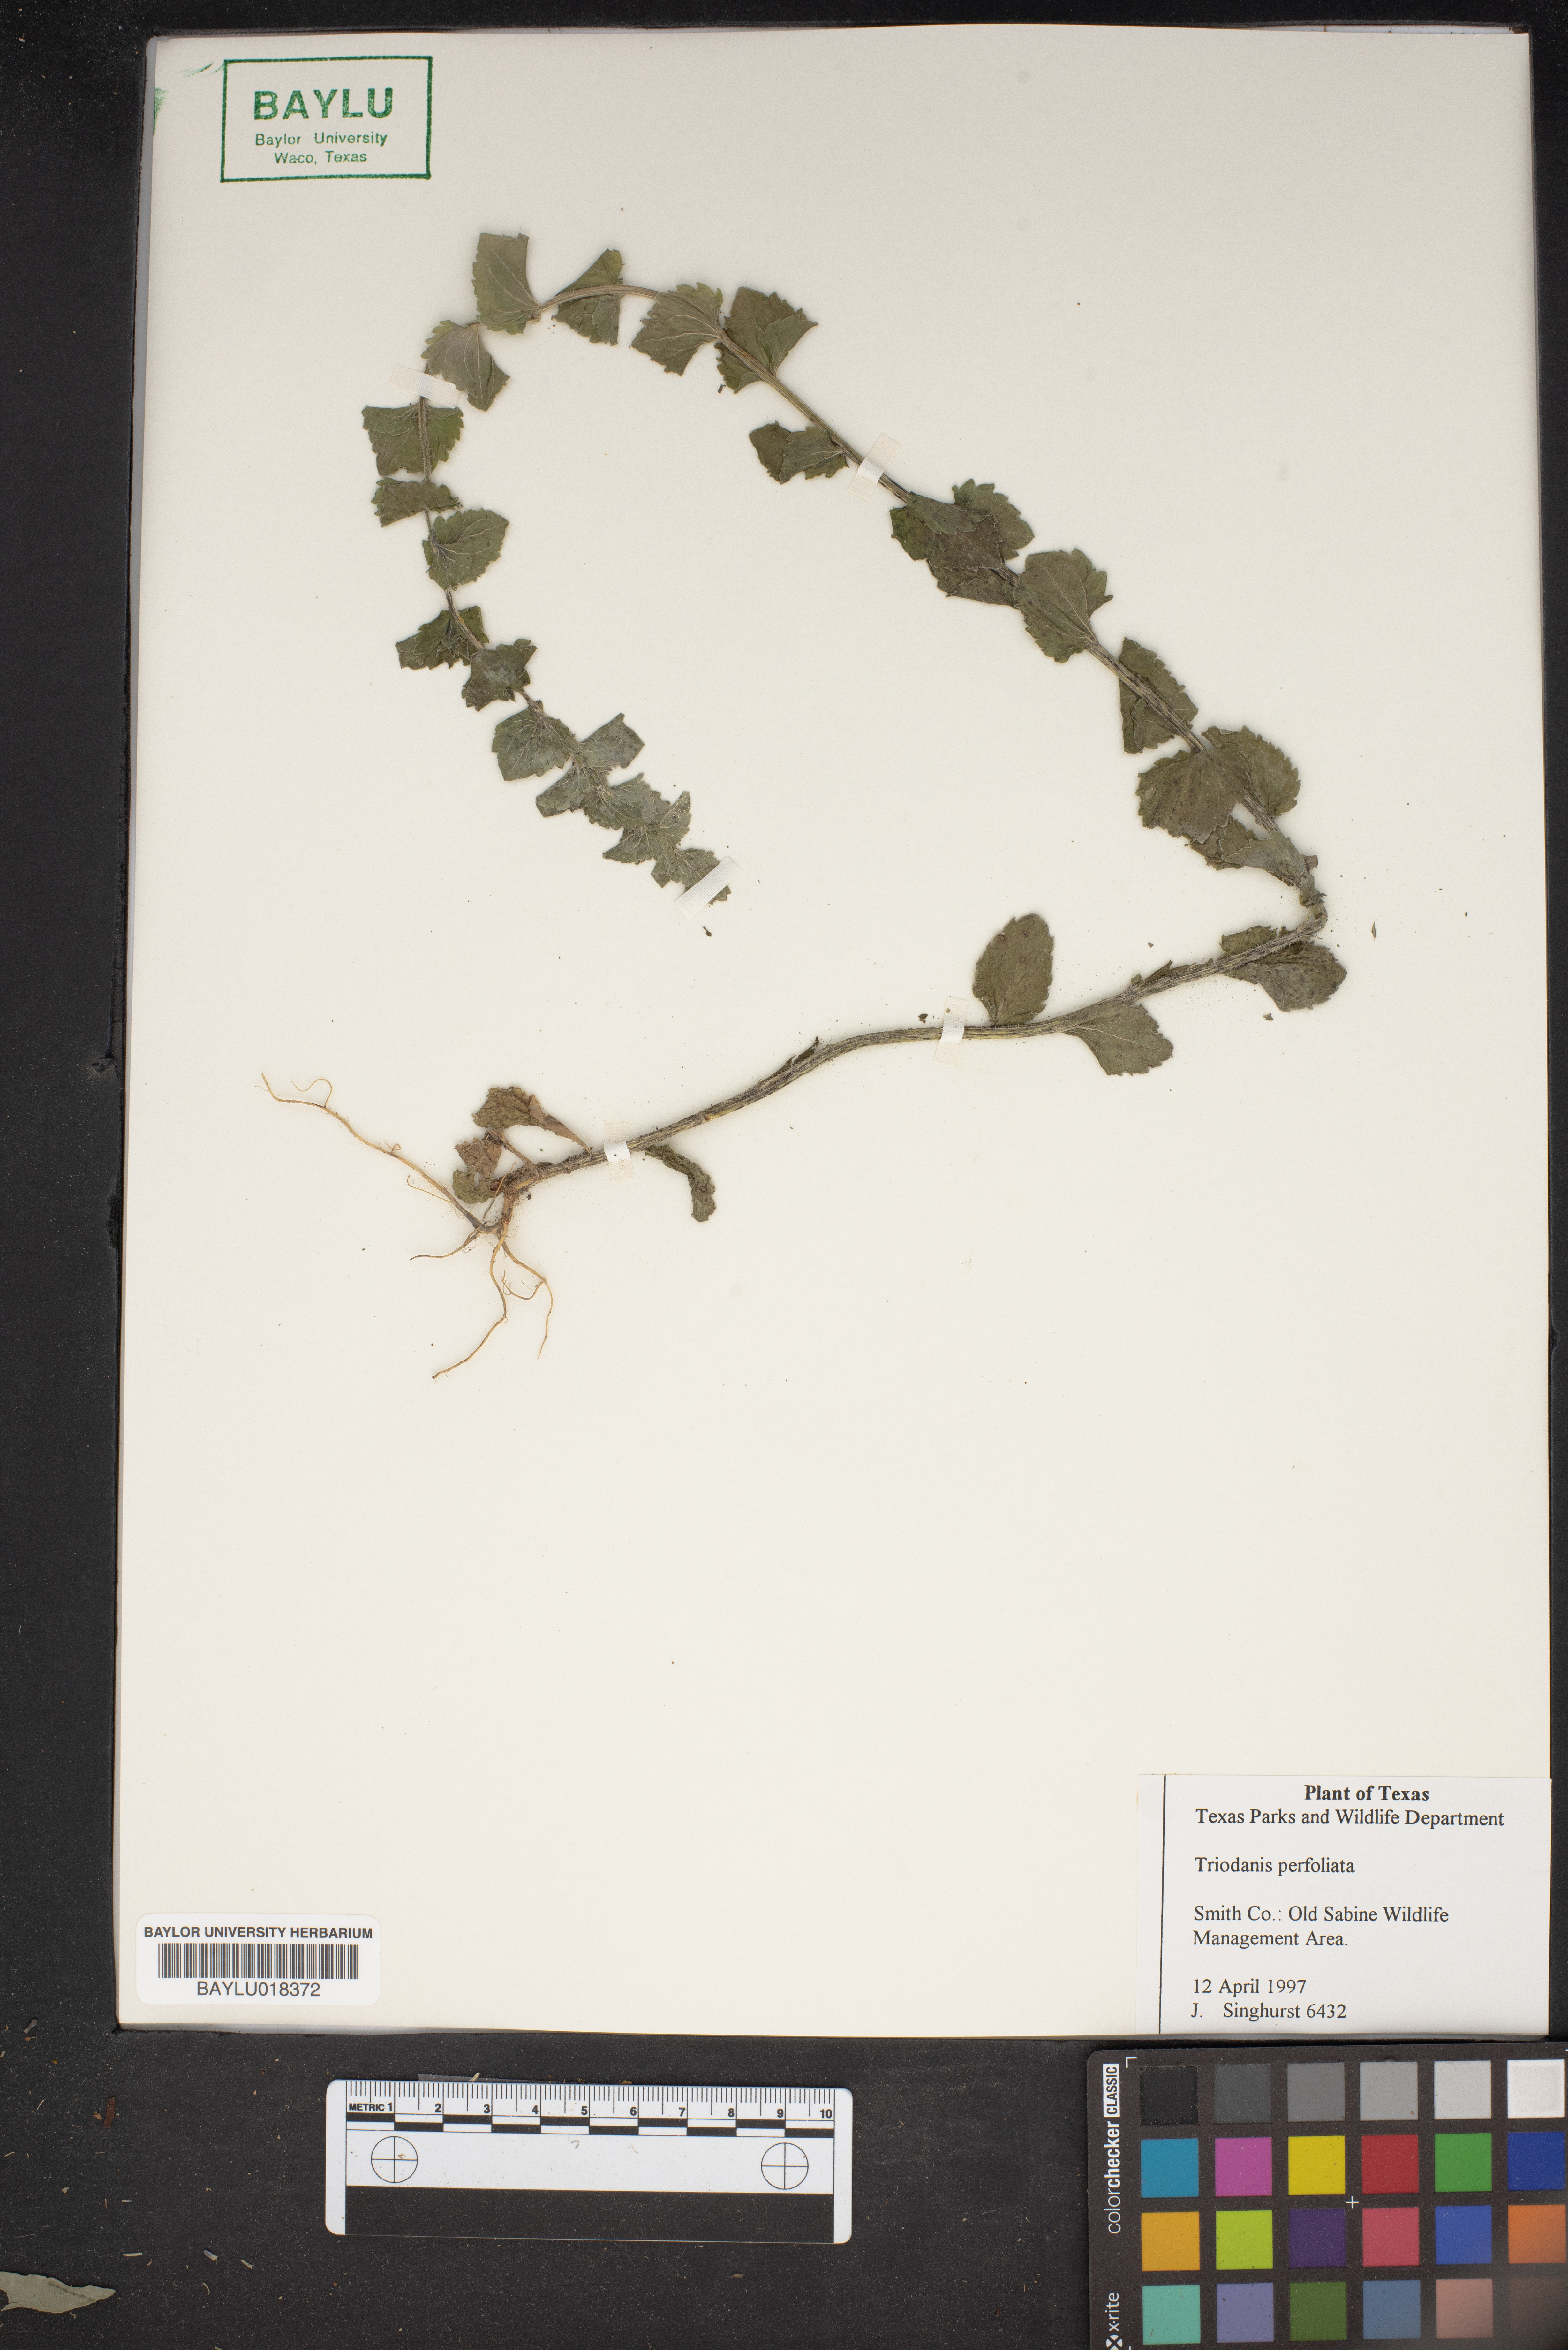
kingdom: Plantae
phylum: Tracheophyta
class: Magnoliopsida
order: Asterales
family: Campanulaceae
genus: Triodanis
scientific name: Triodanis perfoliata
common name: Clasping venus' looking-glass
